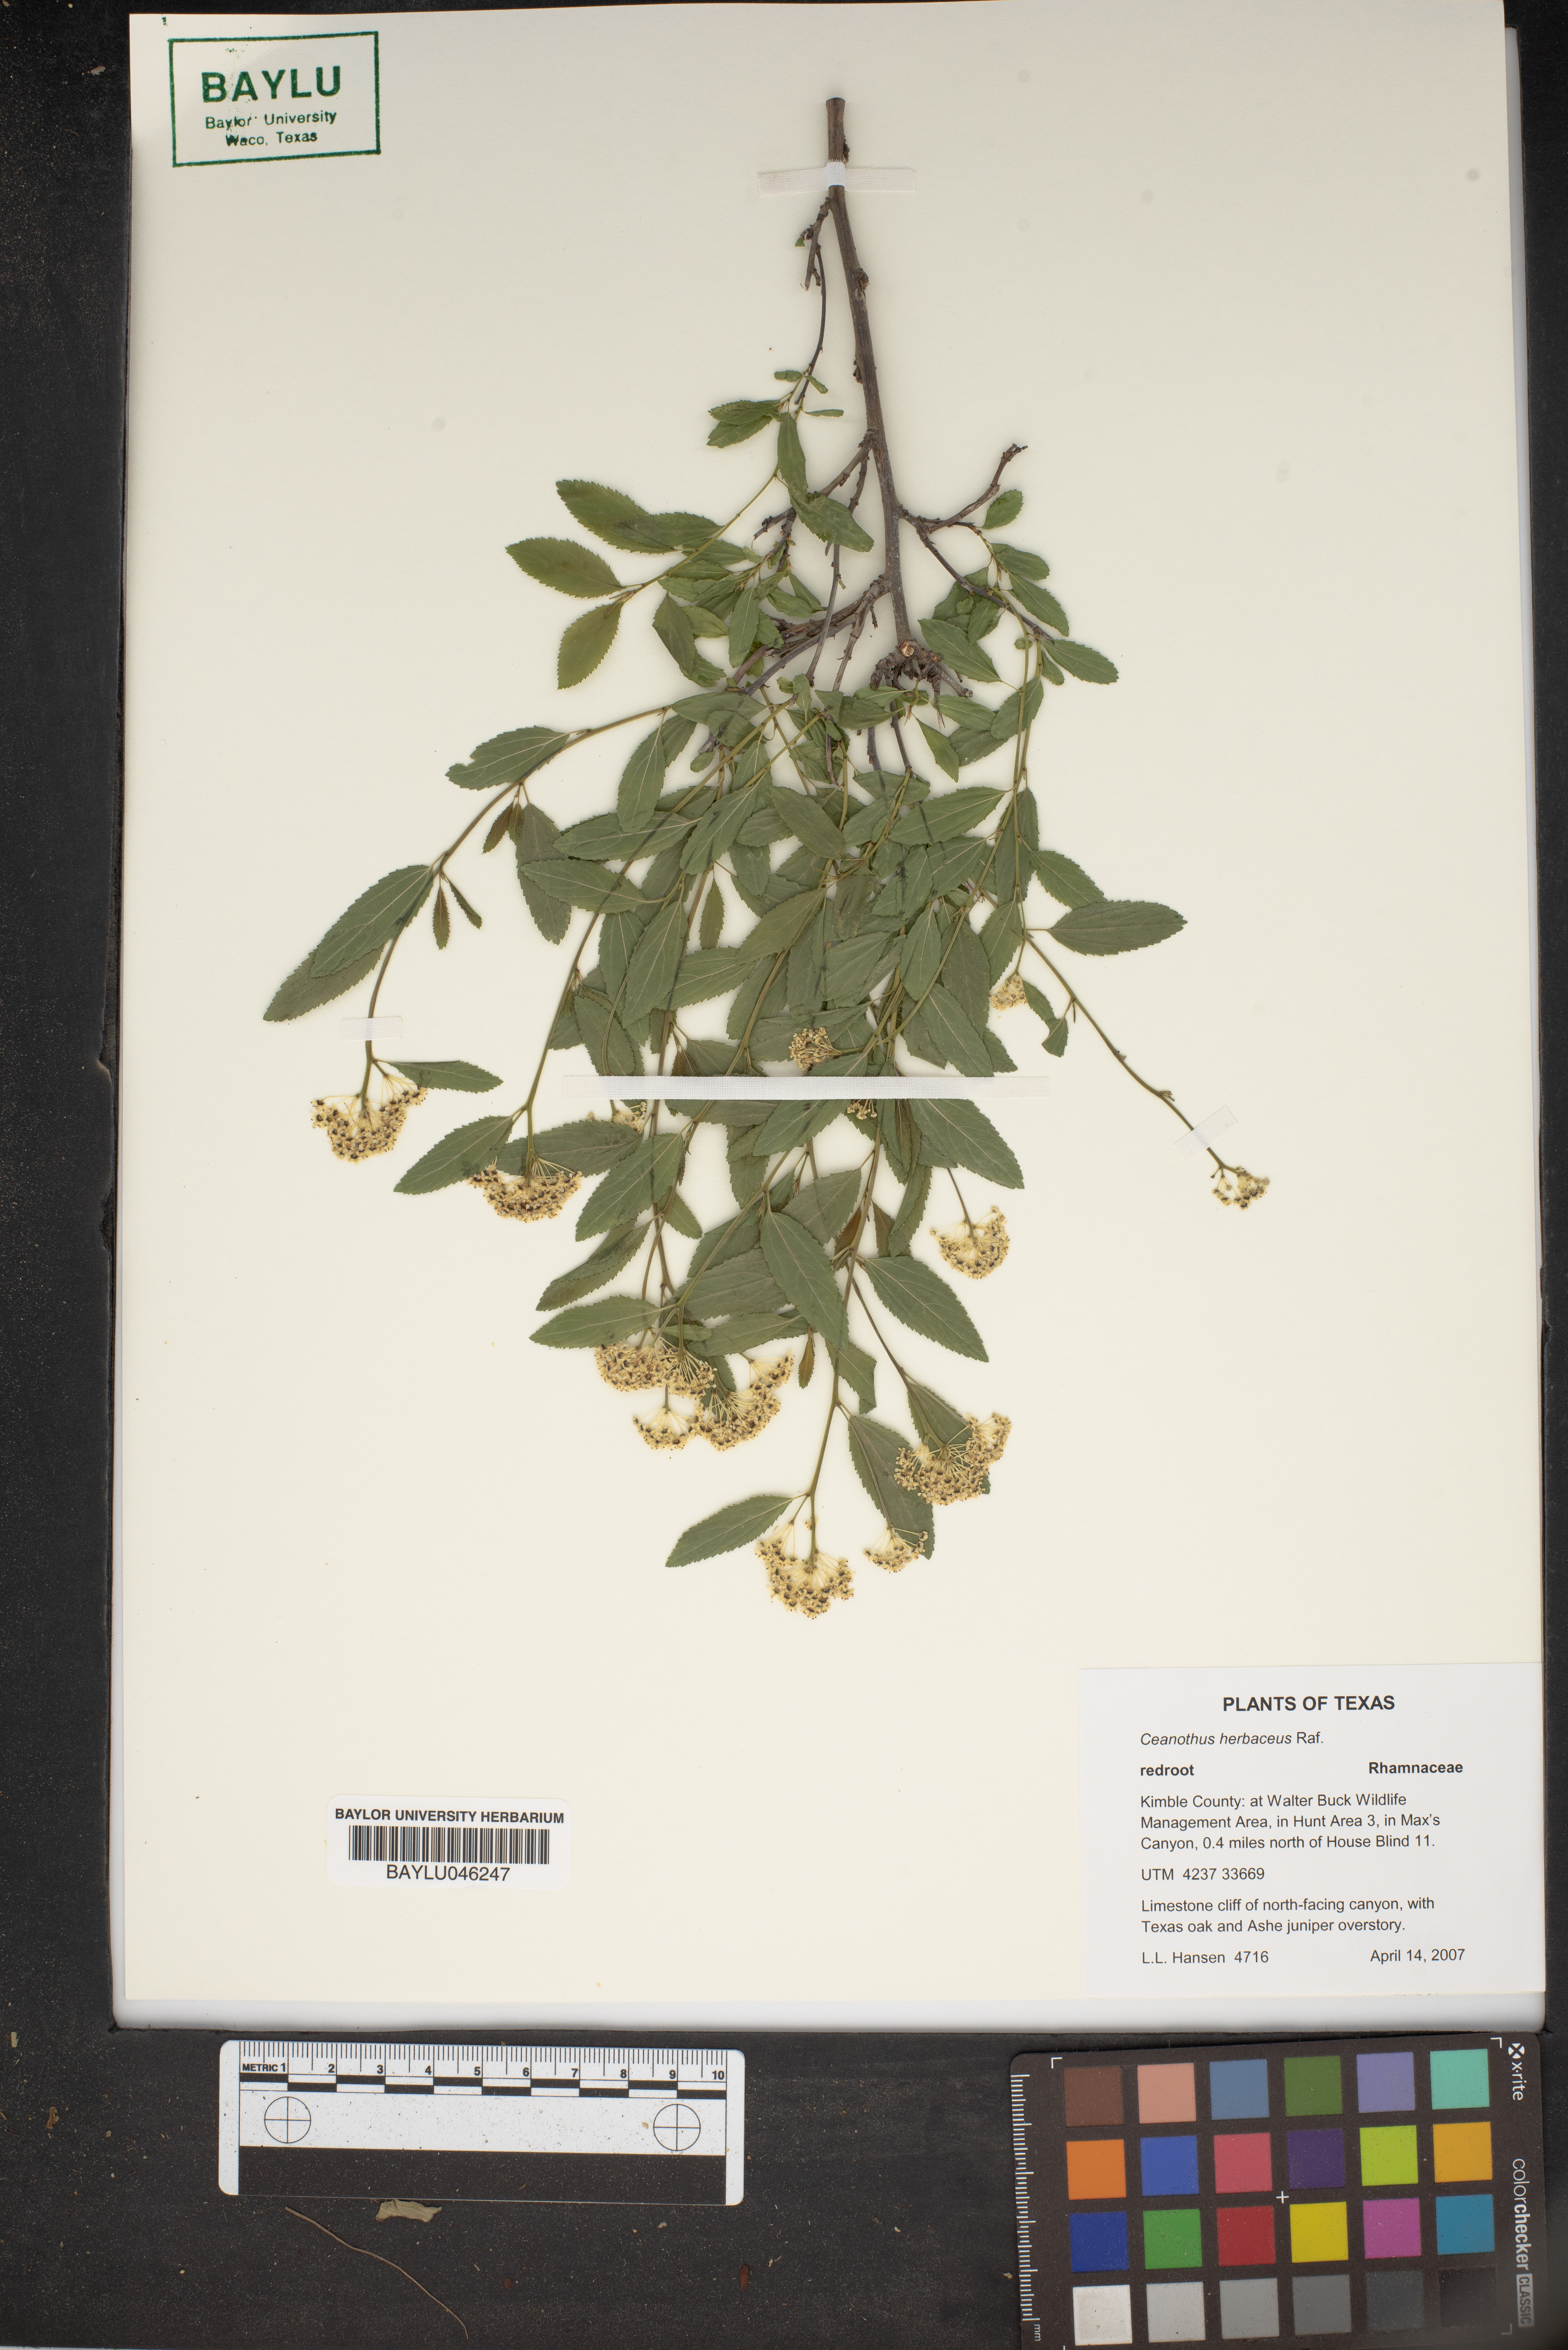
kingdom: Plantae
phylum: Tracheophyta
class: Magnoliopsida
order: Rosales
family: Rhamnaceae
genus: Ceanothus
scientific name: Ceanothus herbaceus
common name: Inland ceanothus
